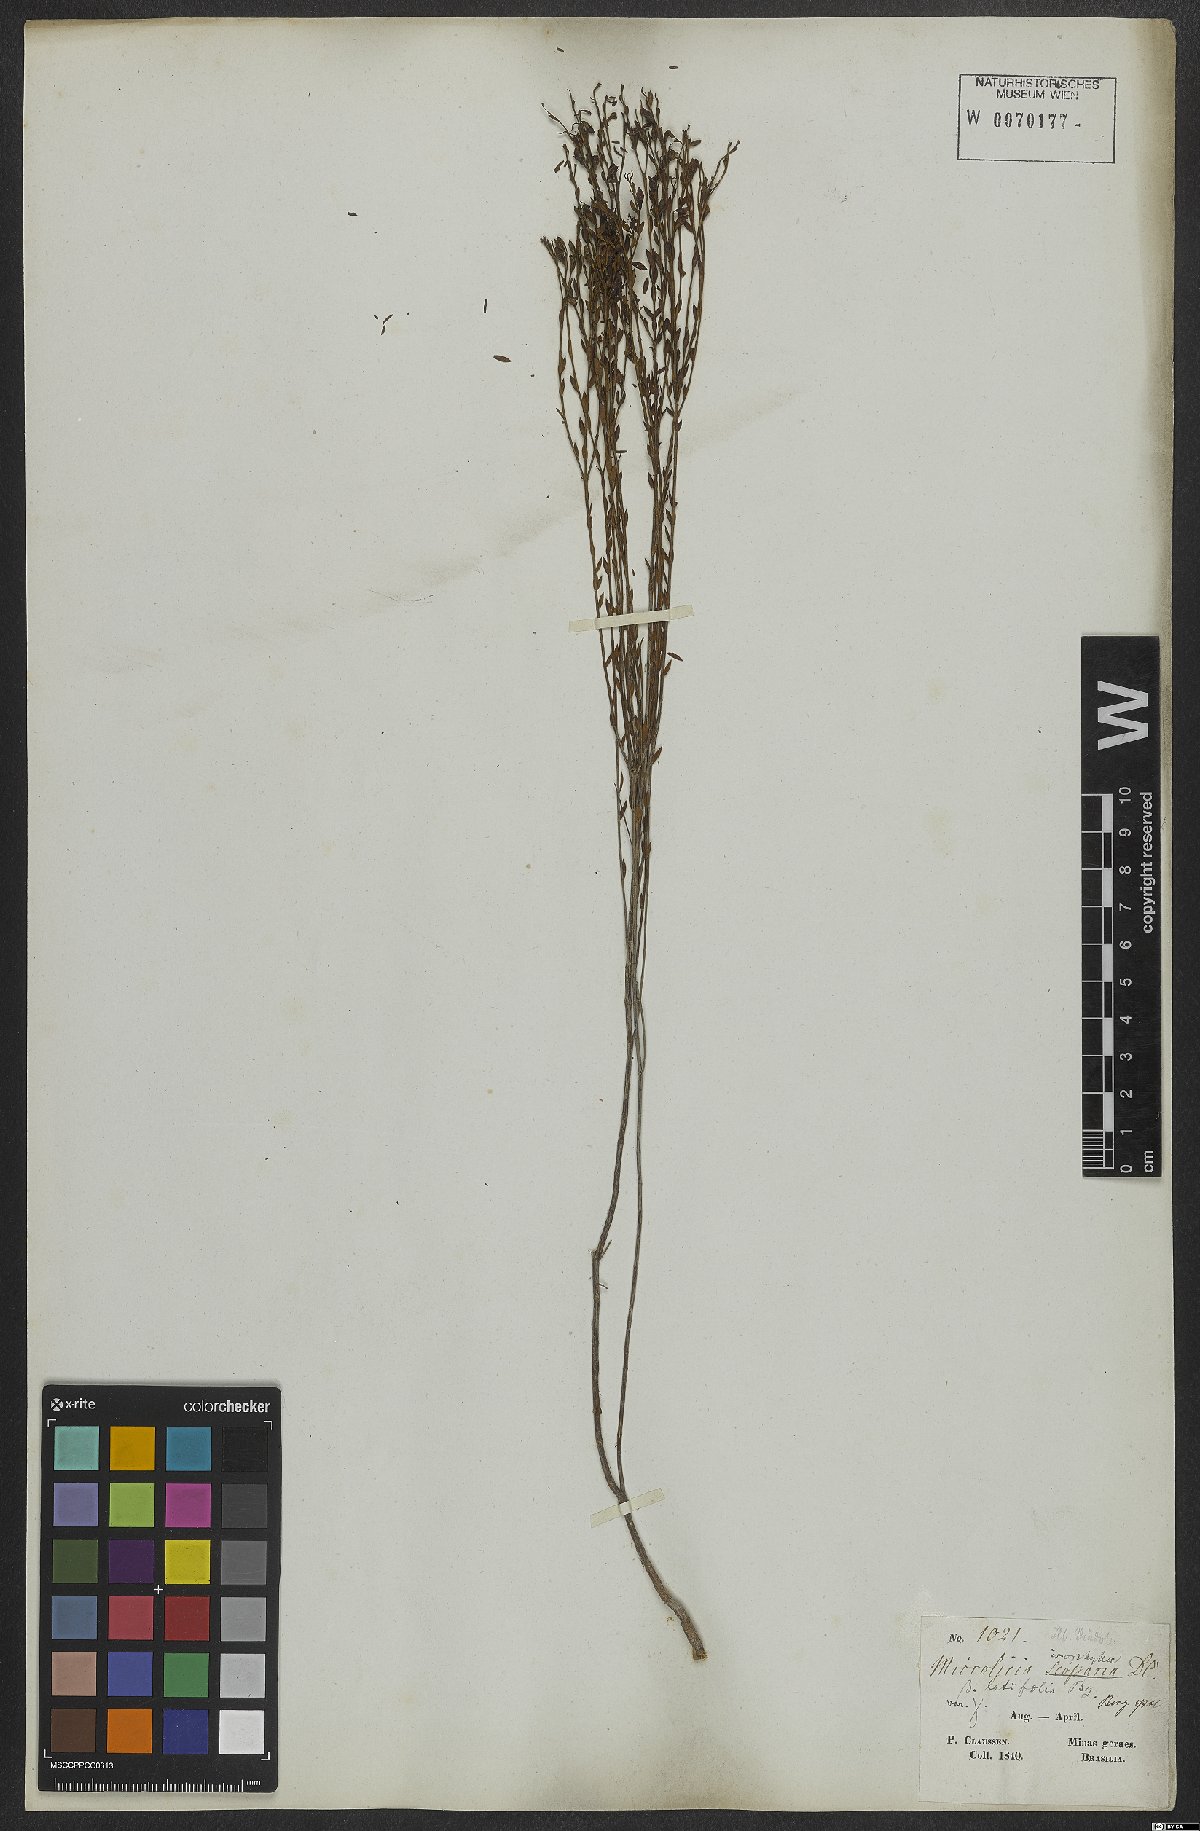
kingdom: Plantae
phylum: Tracheophyta
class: Magnoliopsida
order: Myrtales
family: Melastomataceae
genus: Microlicia
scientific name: Microlicia isophylla
